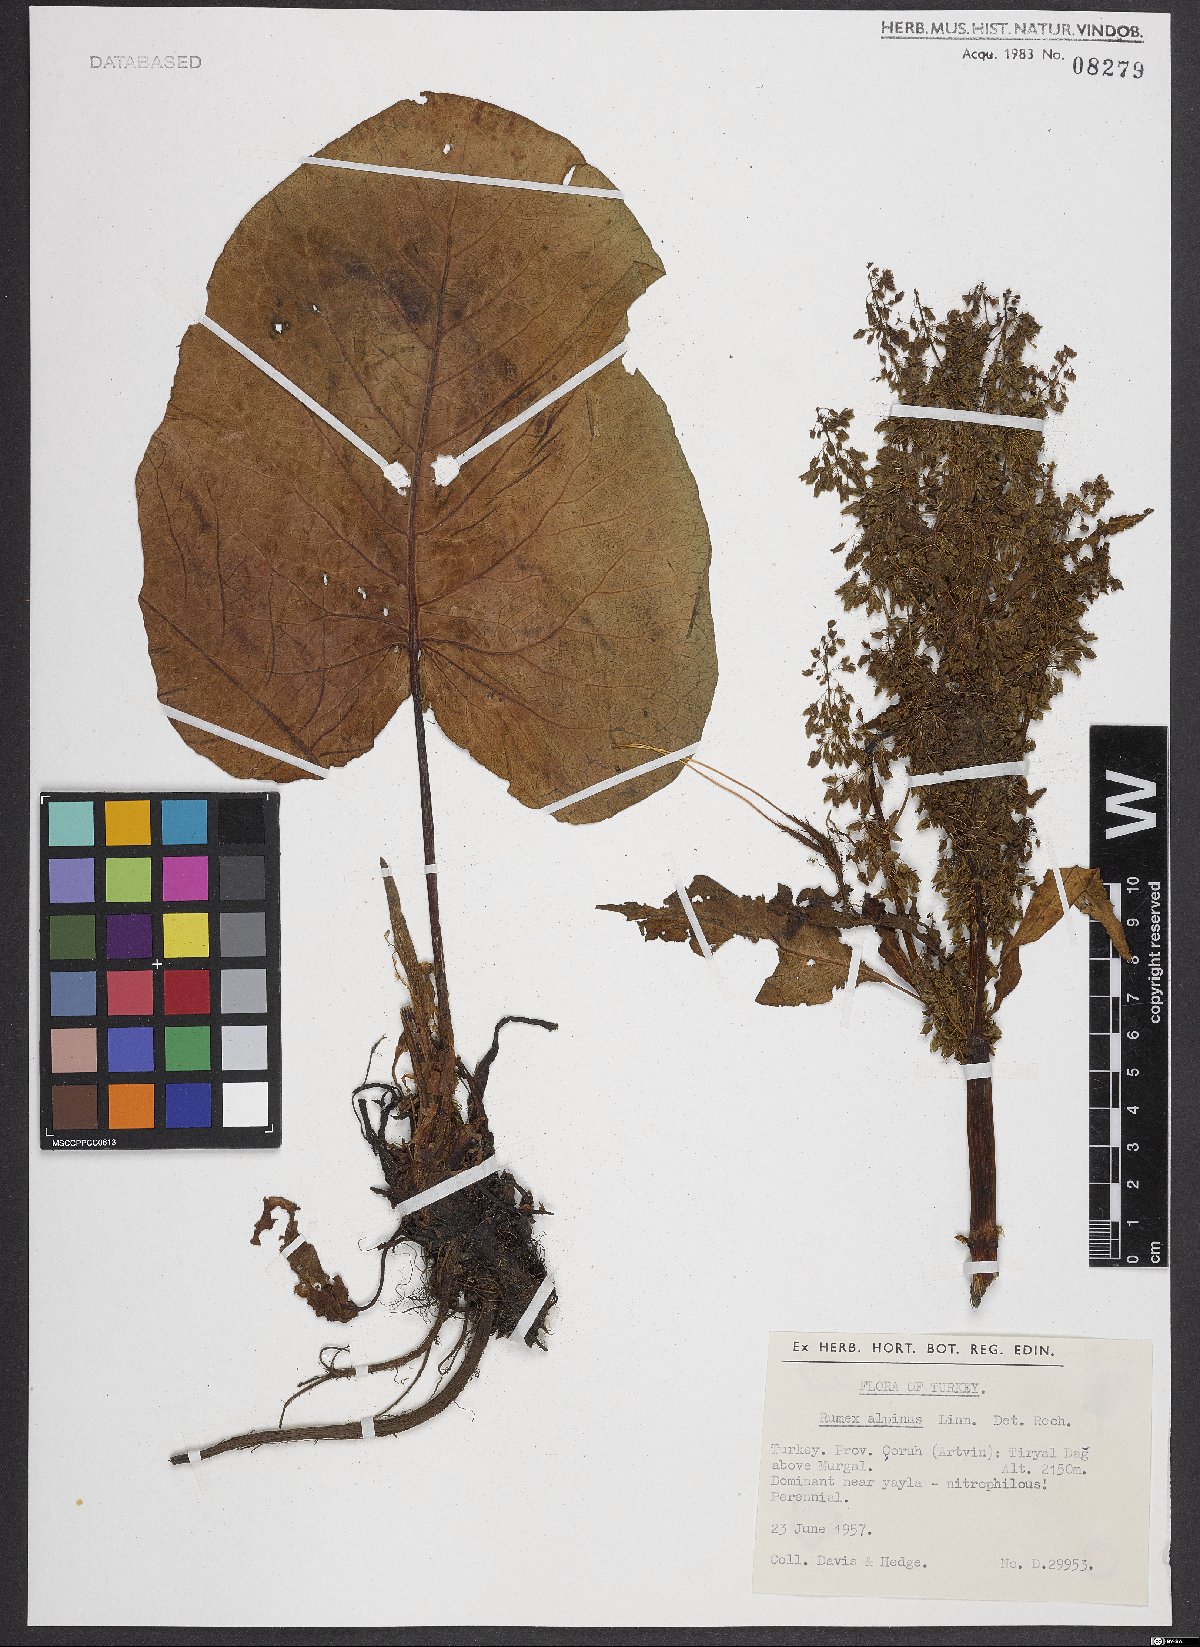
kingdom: Plantae
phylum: Tracheophyta
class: Magnoliopsida
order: Caryophyllales
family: Polygonaceae
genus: Rumex
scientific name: Rumex alpinus
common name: Alpine dock
